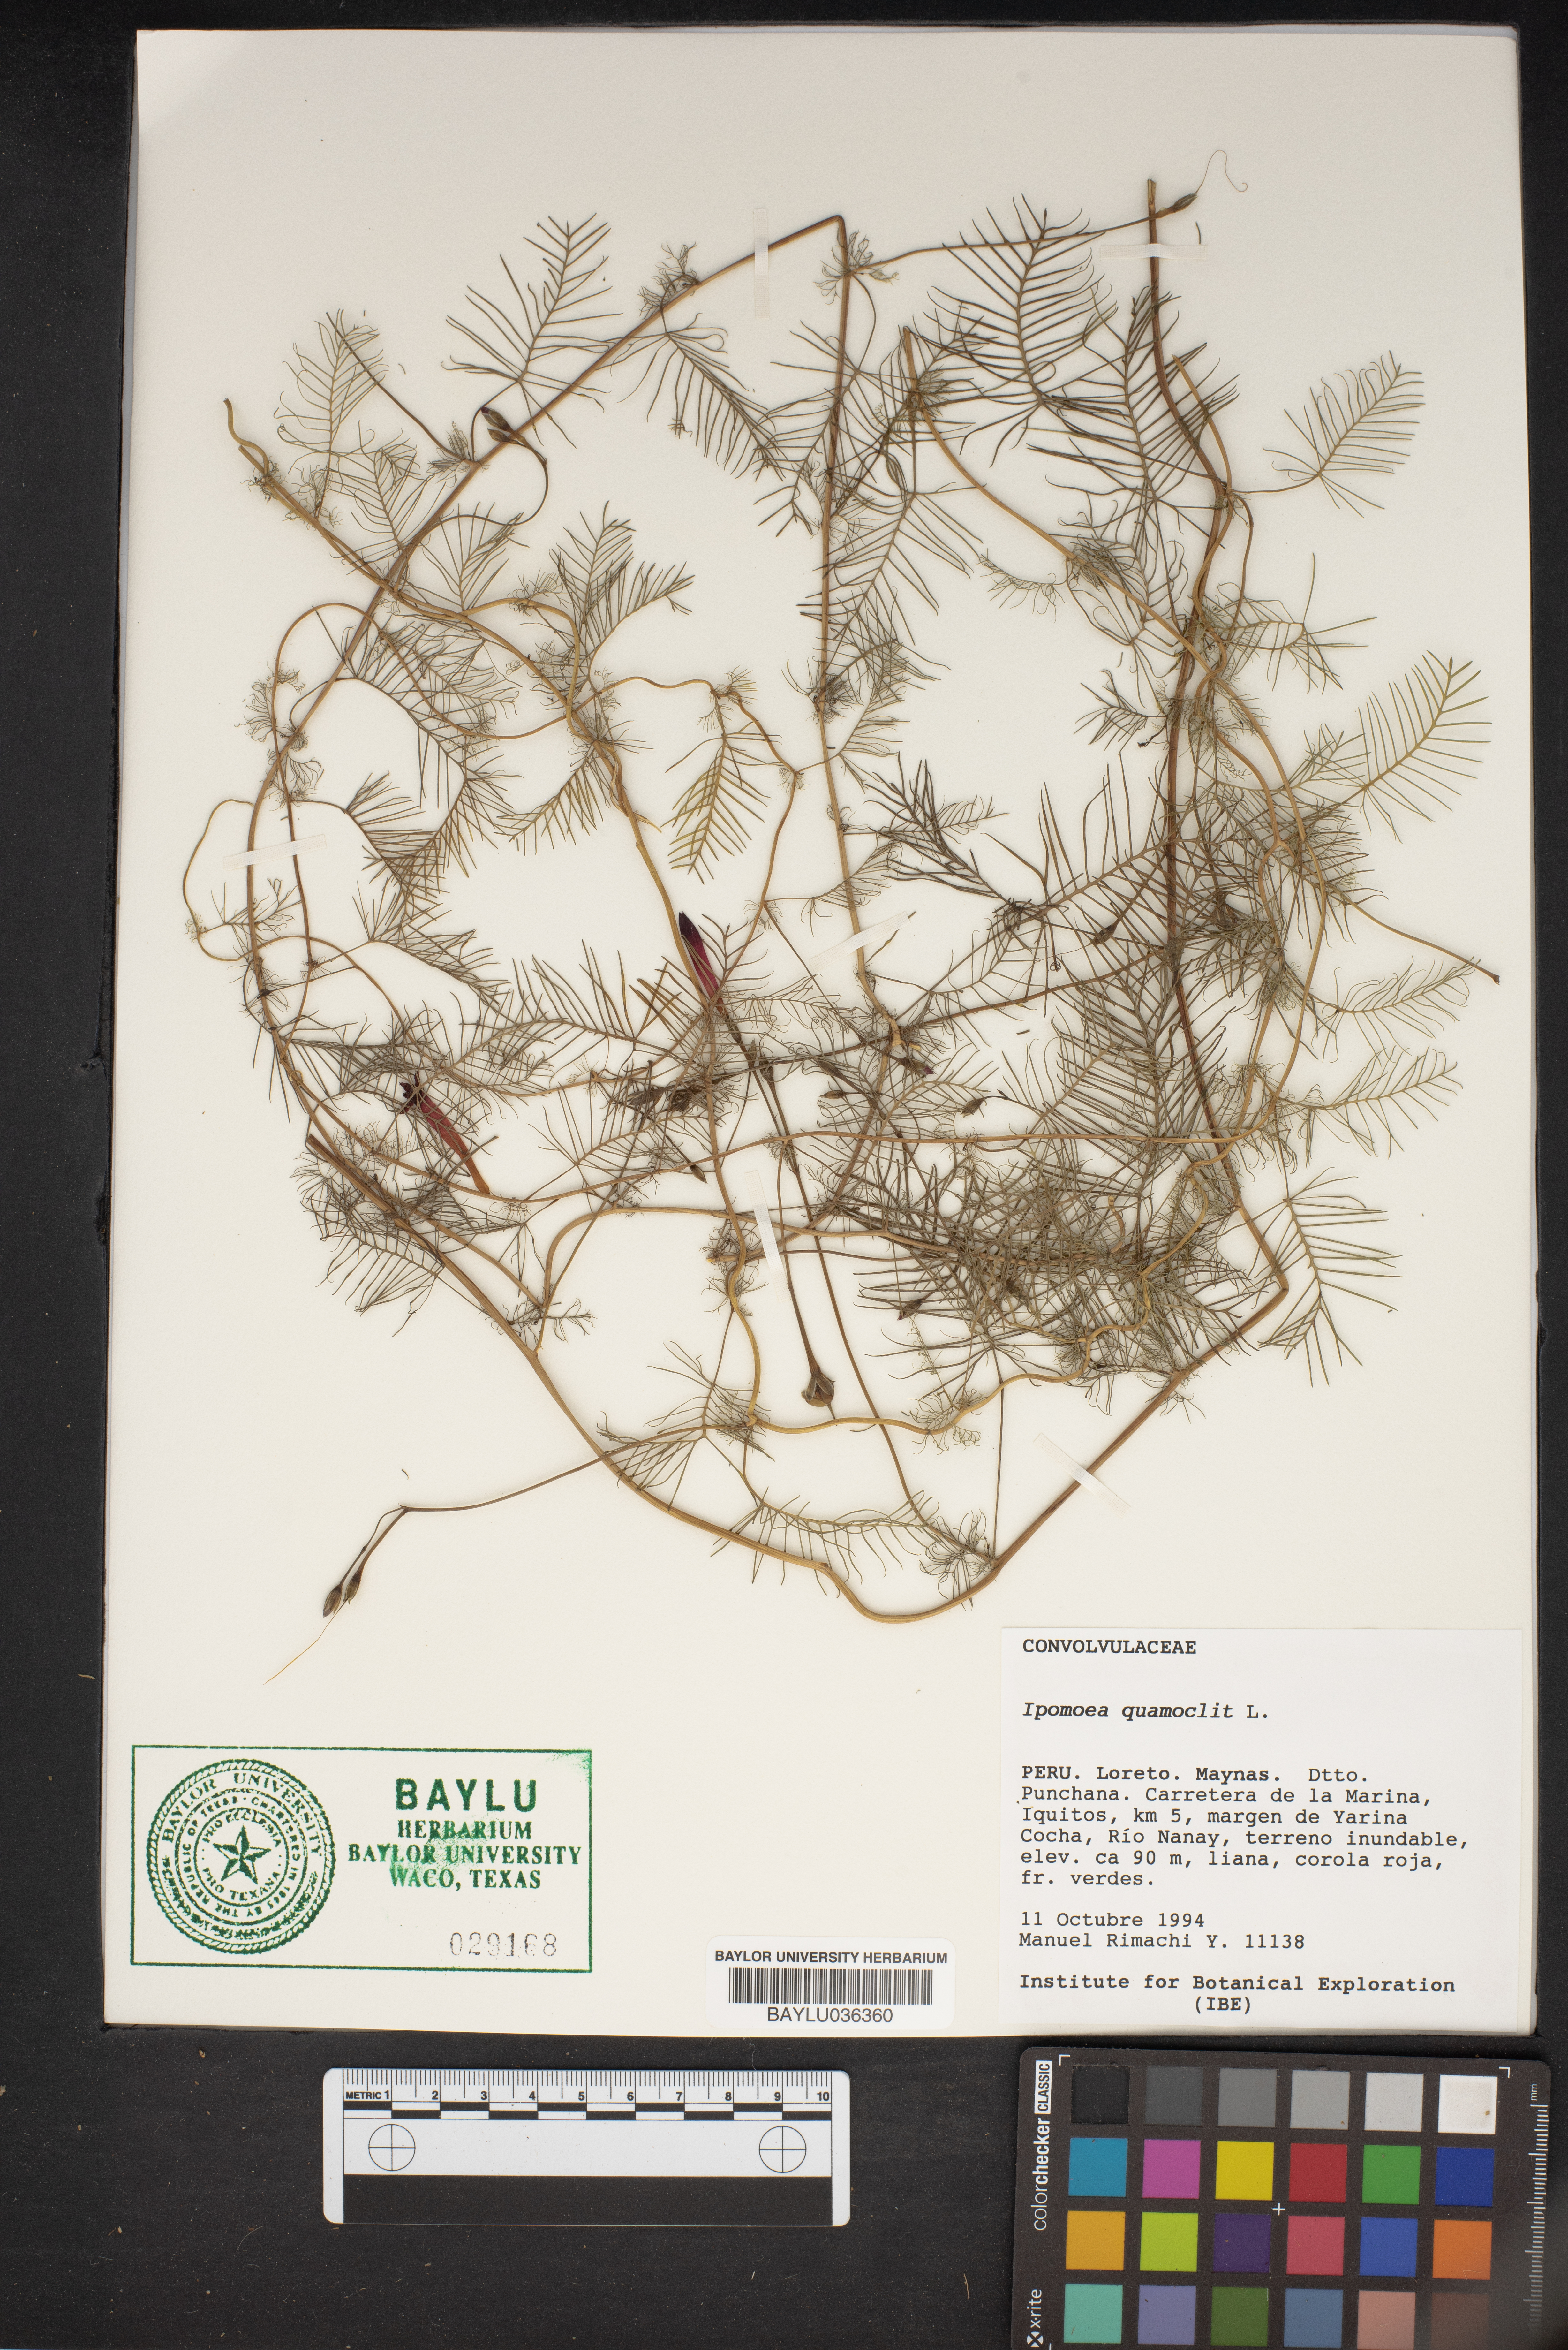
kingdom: Plantae
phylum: Tracheophyta
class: Magnoliopsida
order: Solanales
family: Convolvulaceae
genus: Ipomoea
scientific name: Ipomoea quamoclit
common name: Cypress vine
